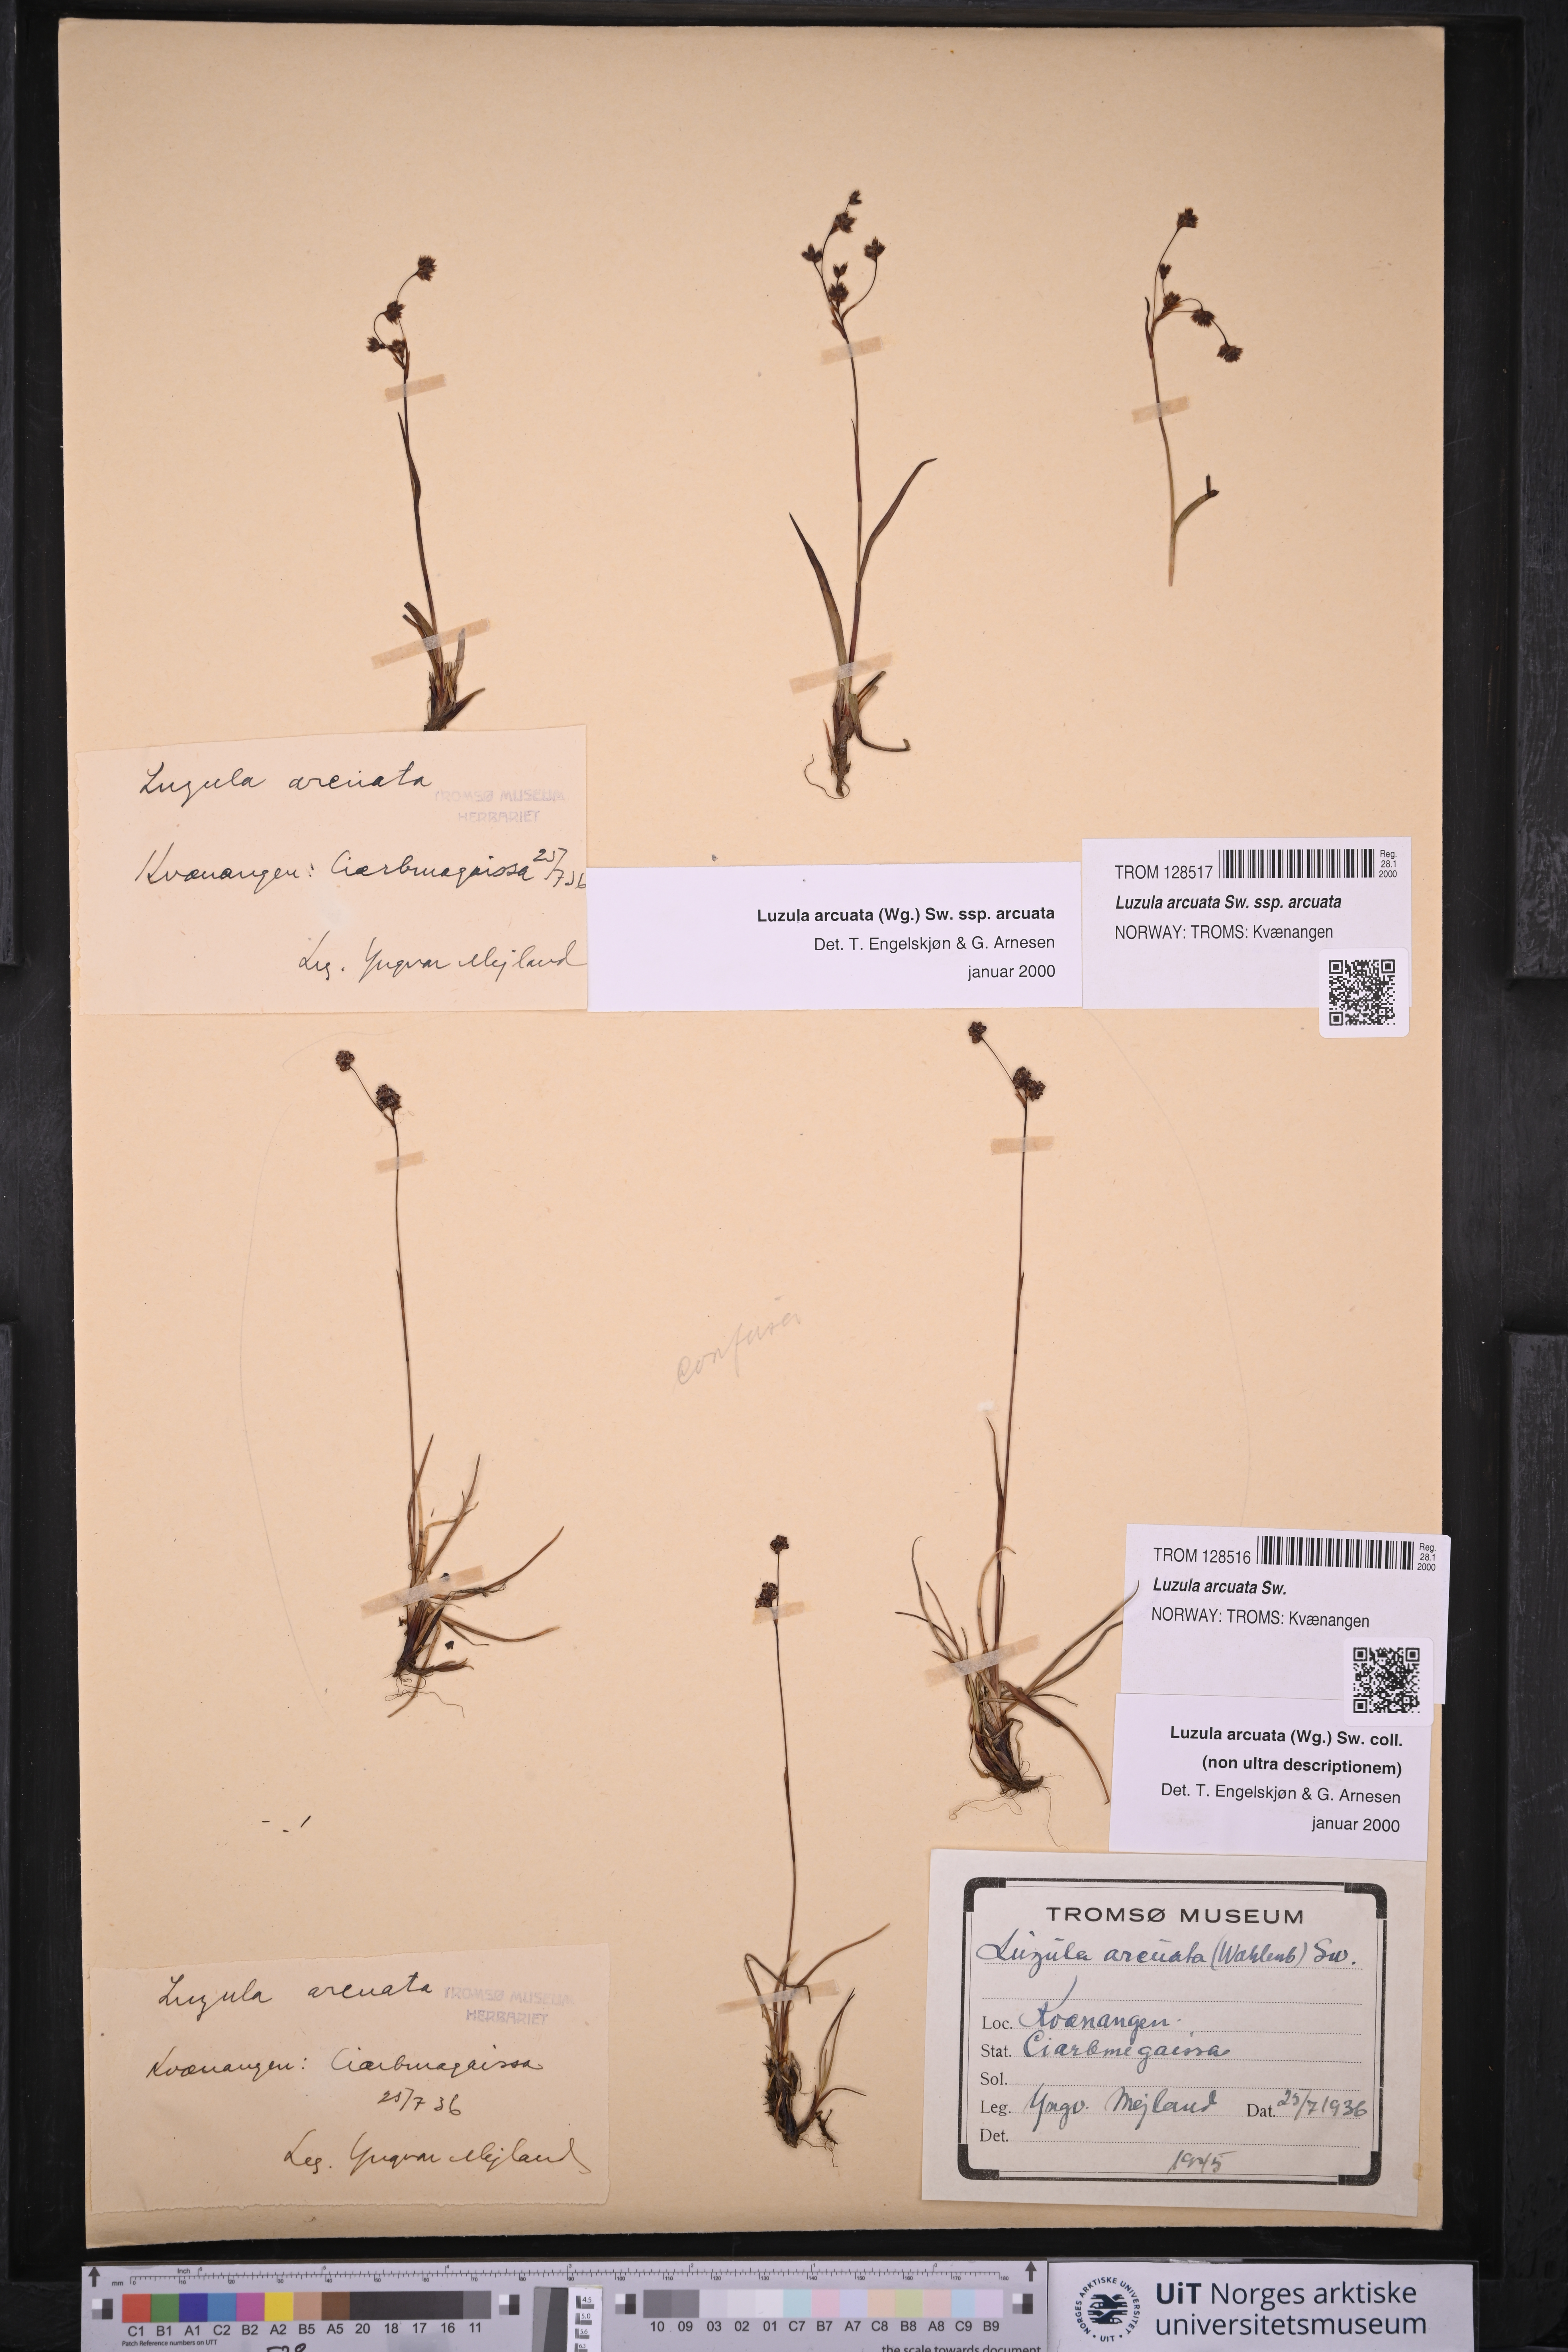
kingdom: Plantae
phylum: Tracheophyta
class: Liliopsida
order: Poales
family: Juncaceae
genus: Luzula
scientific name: Luzula arcuata
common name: Curved wood-rush
